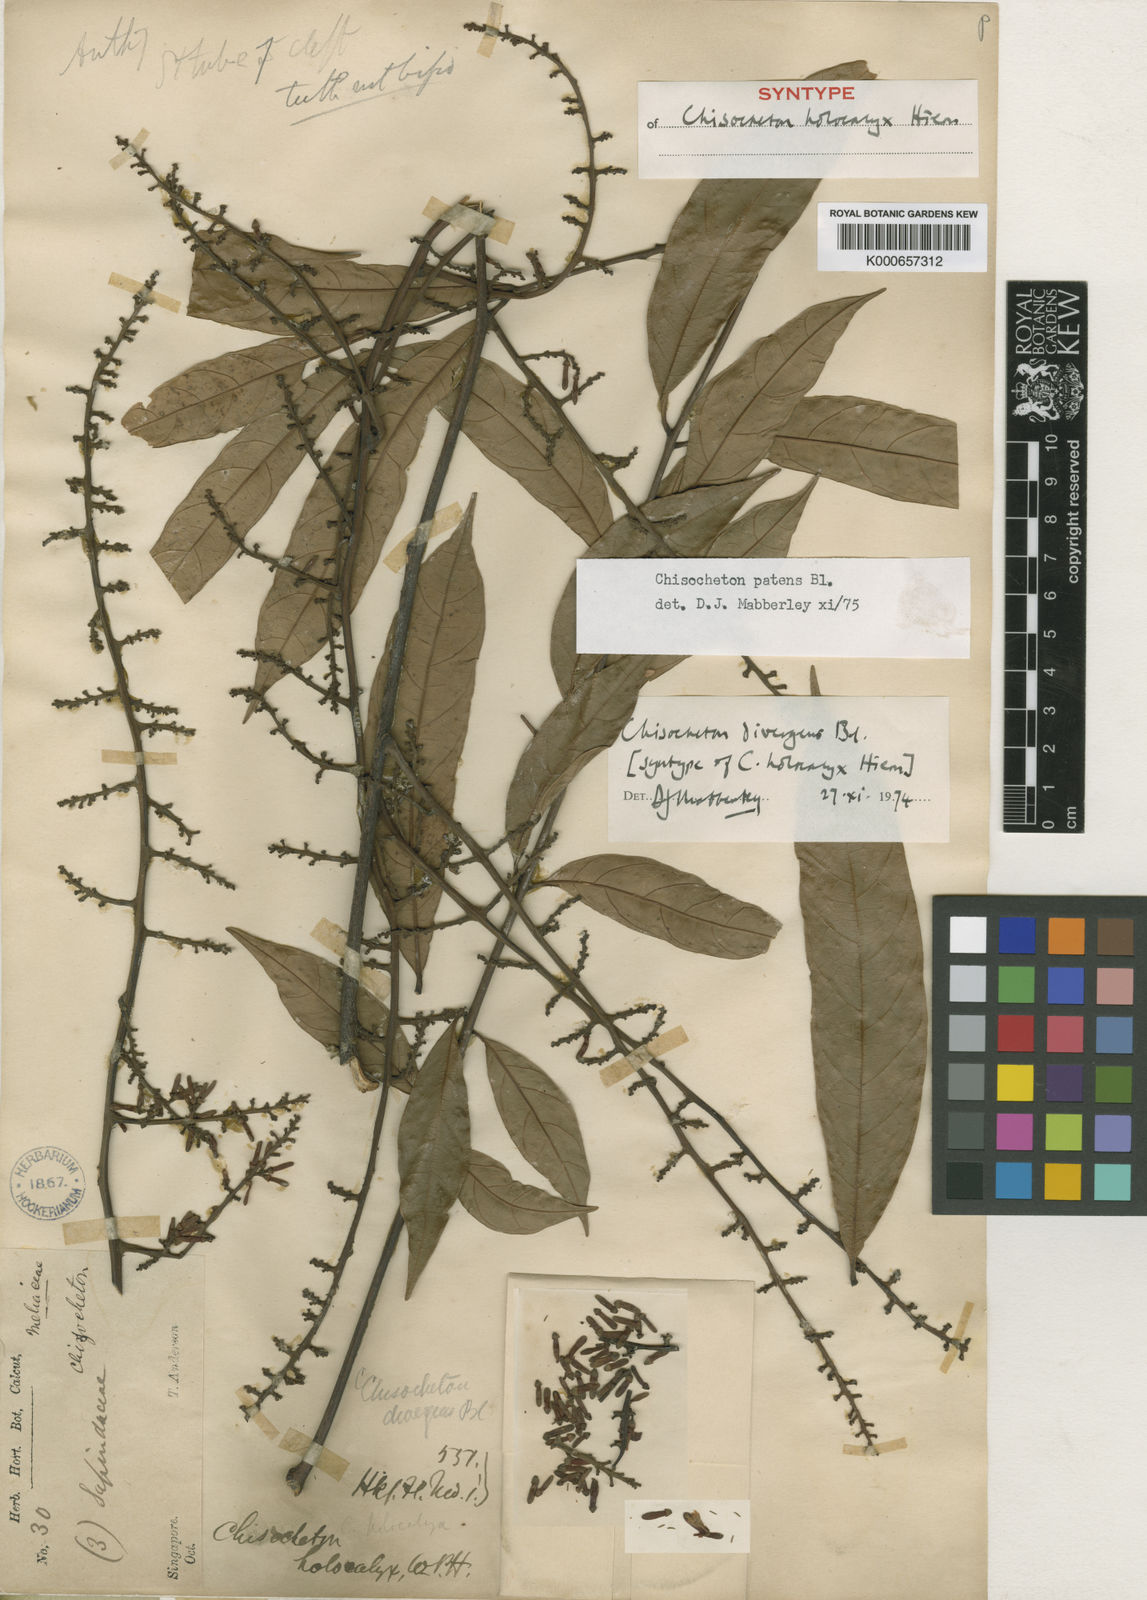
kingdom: Plantae
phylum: Tracheophyta
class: Magnoliopsida
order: Sapindales
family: Meliaceae
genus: Chisocheton
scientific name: Chisocheton patens
